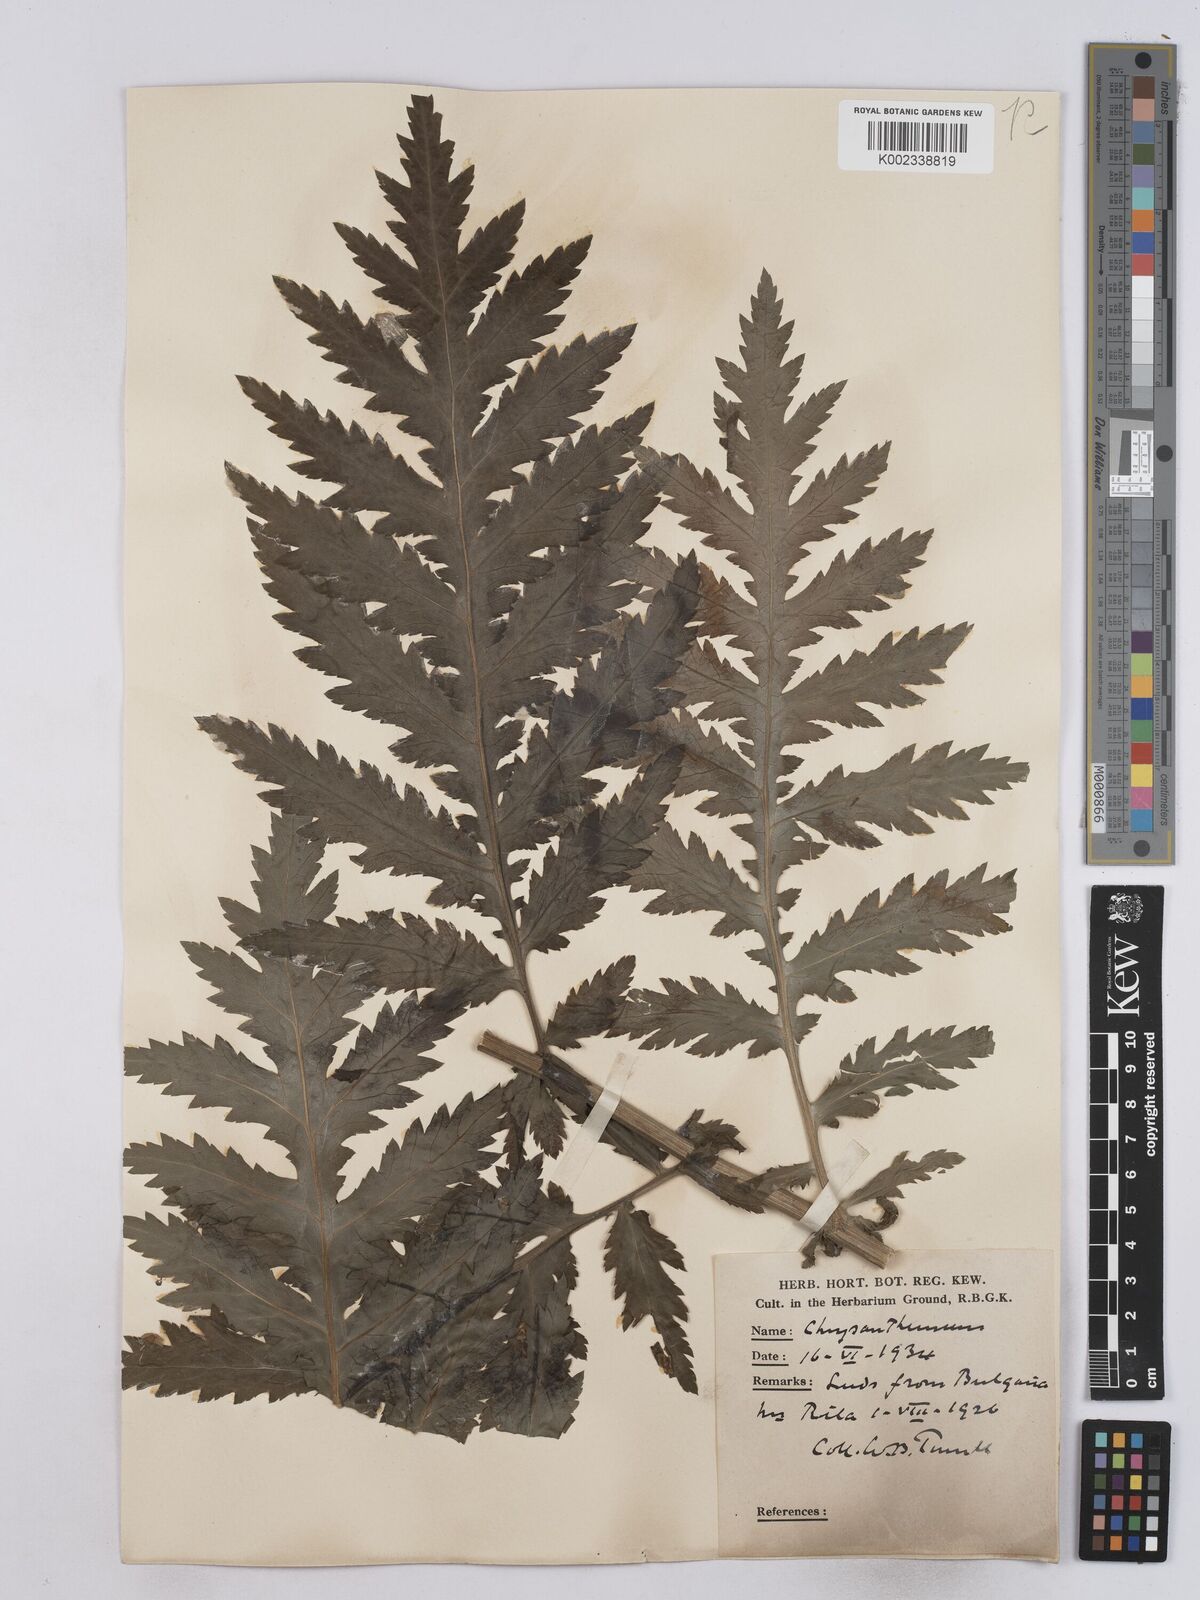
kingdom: Plantae
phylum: Tracheophyta
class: Magnoliopsida
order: Asterales
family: Asteraceae
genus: Tanacetum
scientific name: Tanacetum macrophyllum
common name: Rayed tansy
